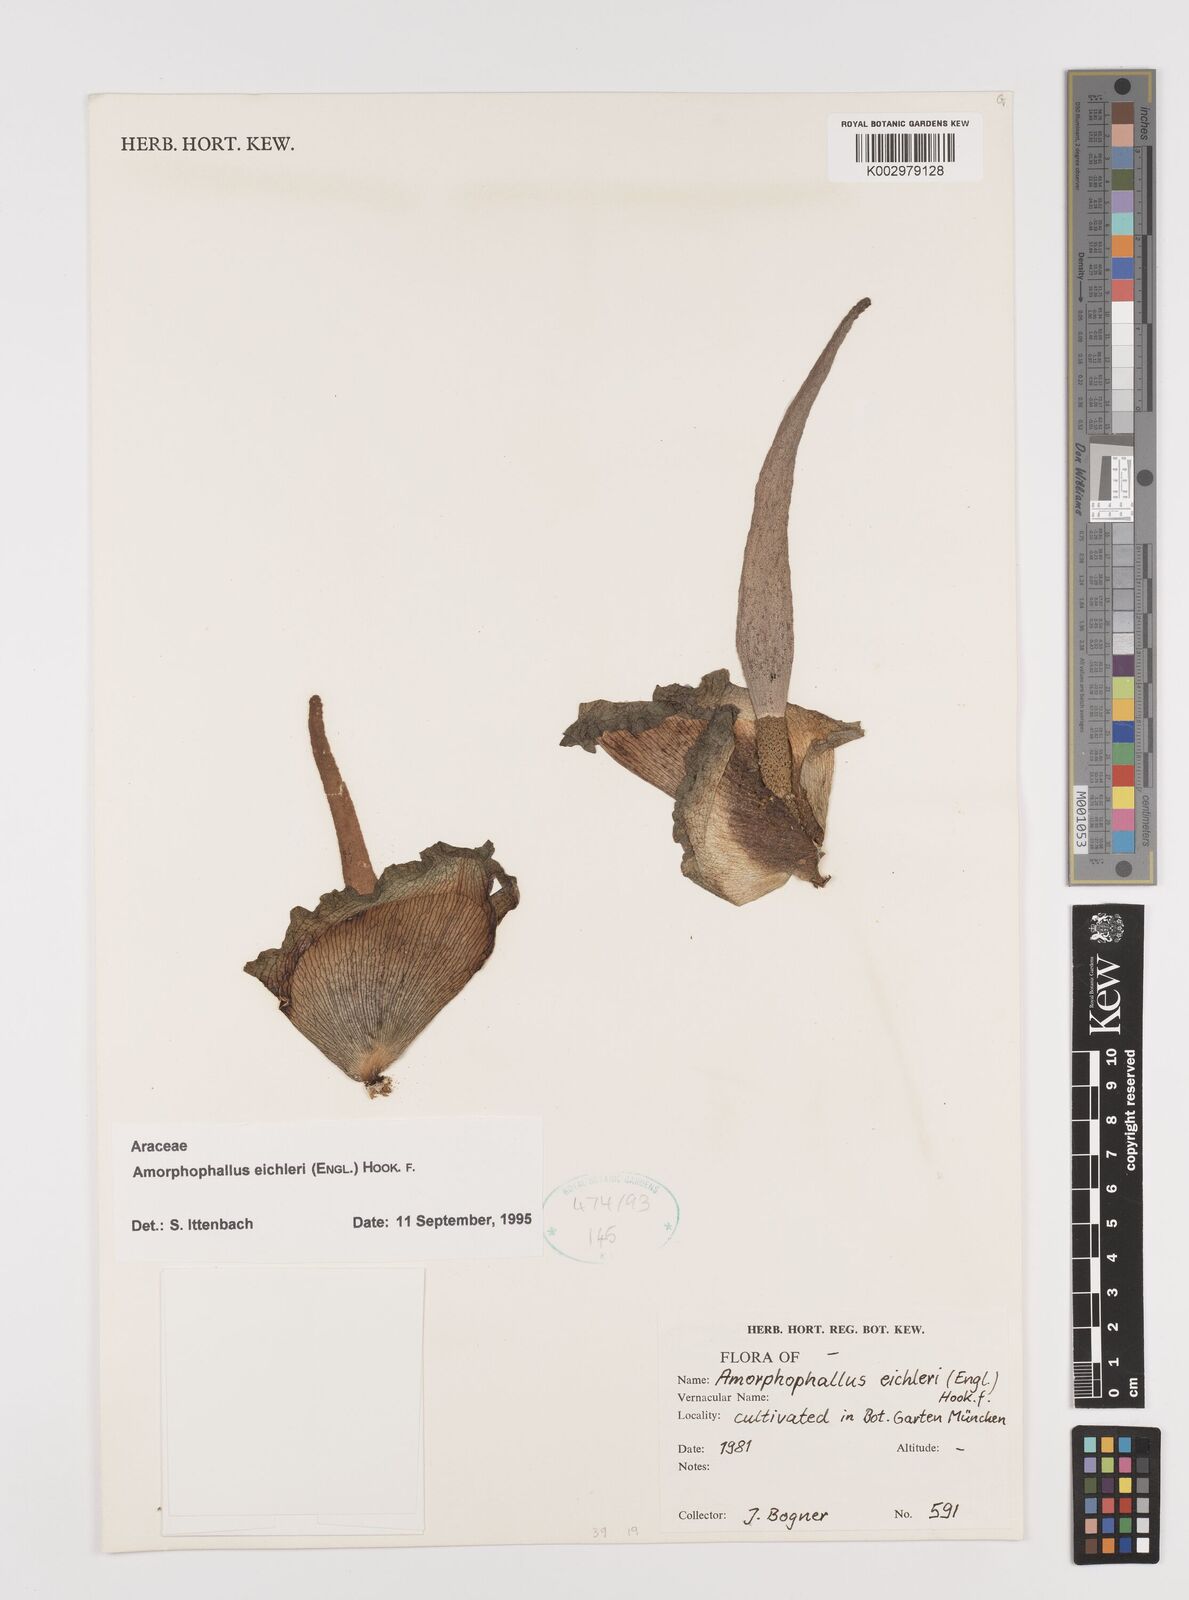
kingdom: Plantae
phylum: Tracheophyta
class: Liliopsida
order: Alismatales
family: Araceae
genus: Amorphophallus
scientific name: Amorphophallus eichleri
